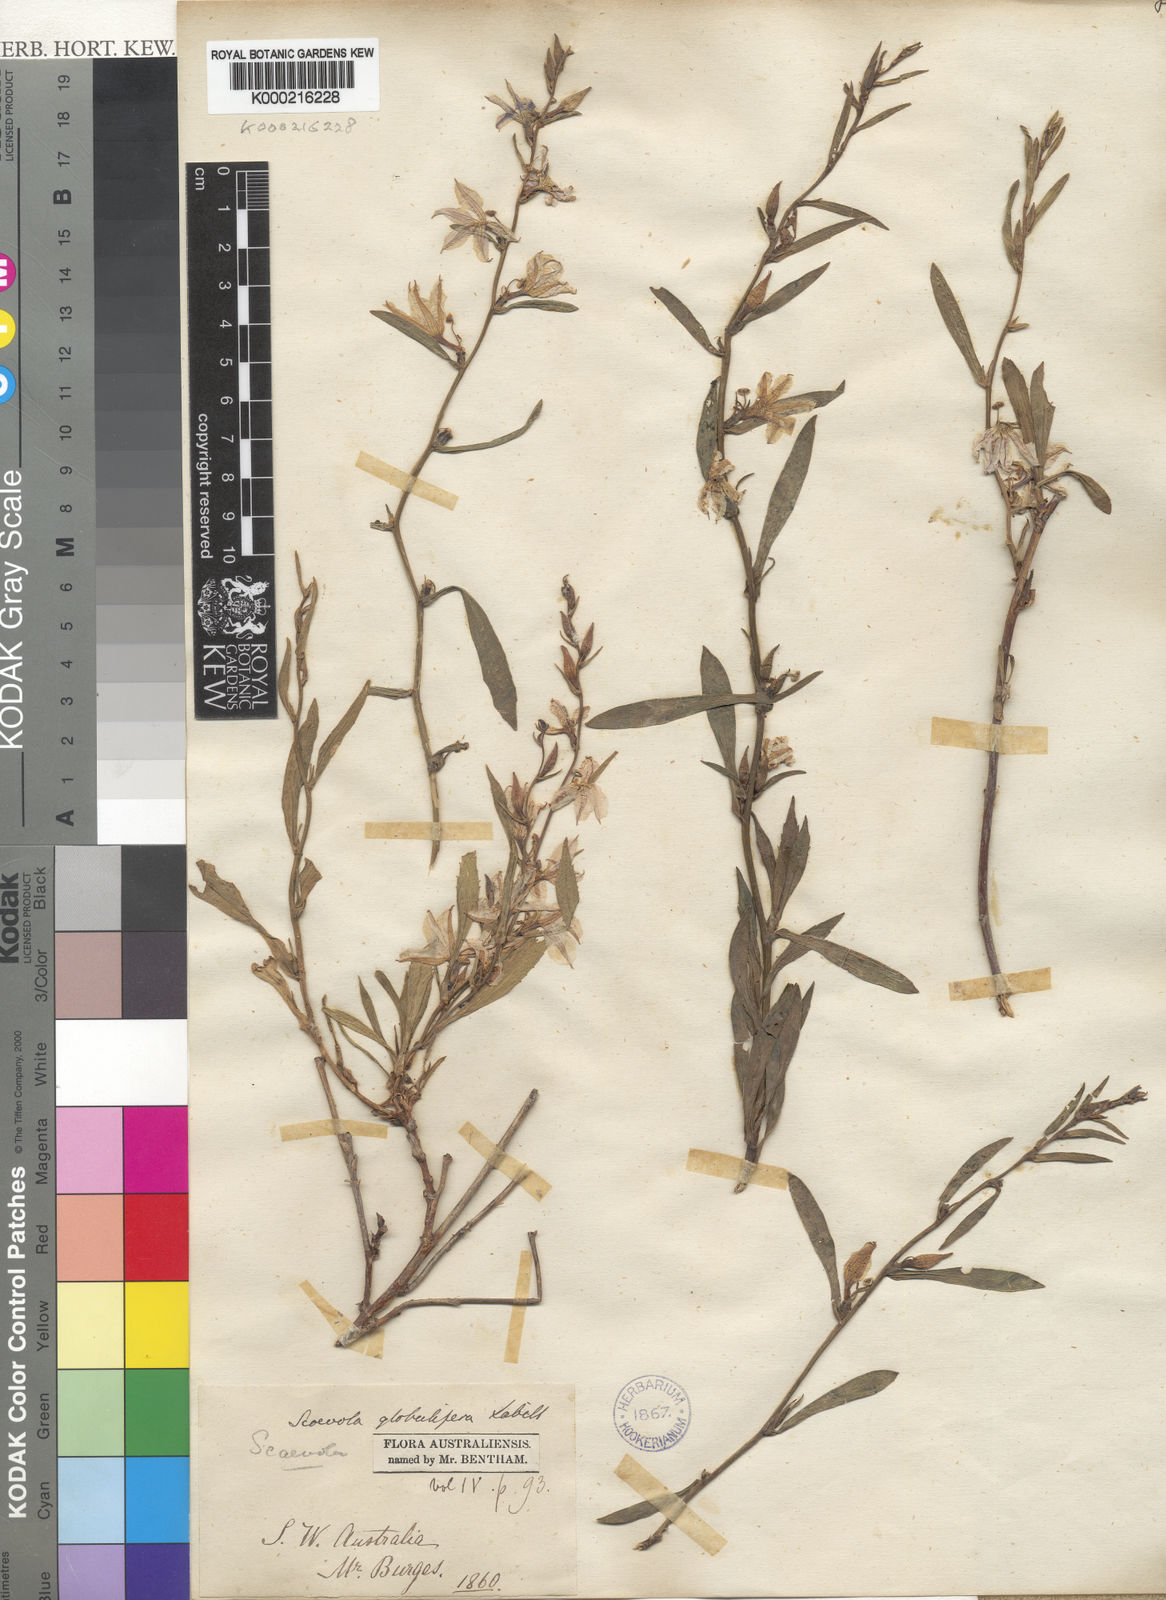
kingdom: Plantae
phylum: Tracheophyta
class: Magnoliopsida
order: Asterales
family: Goodeniaceae
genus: Scaevola
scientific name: Scaevola globulifera
